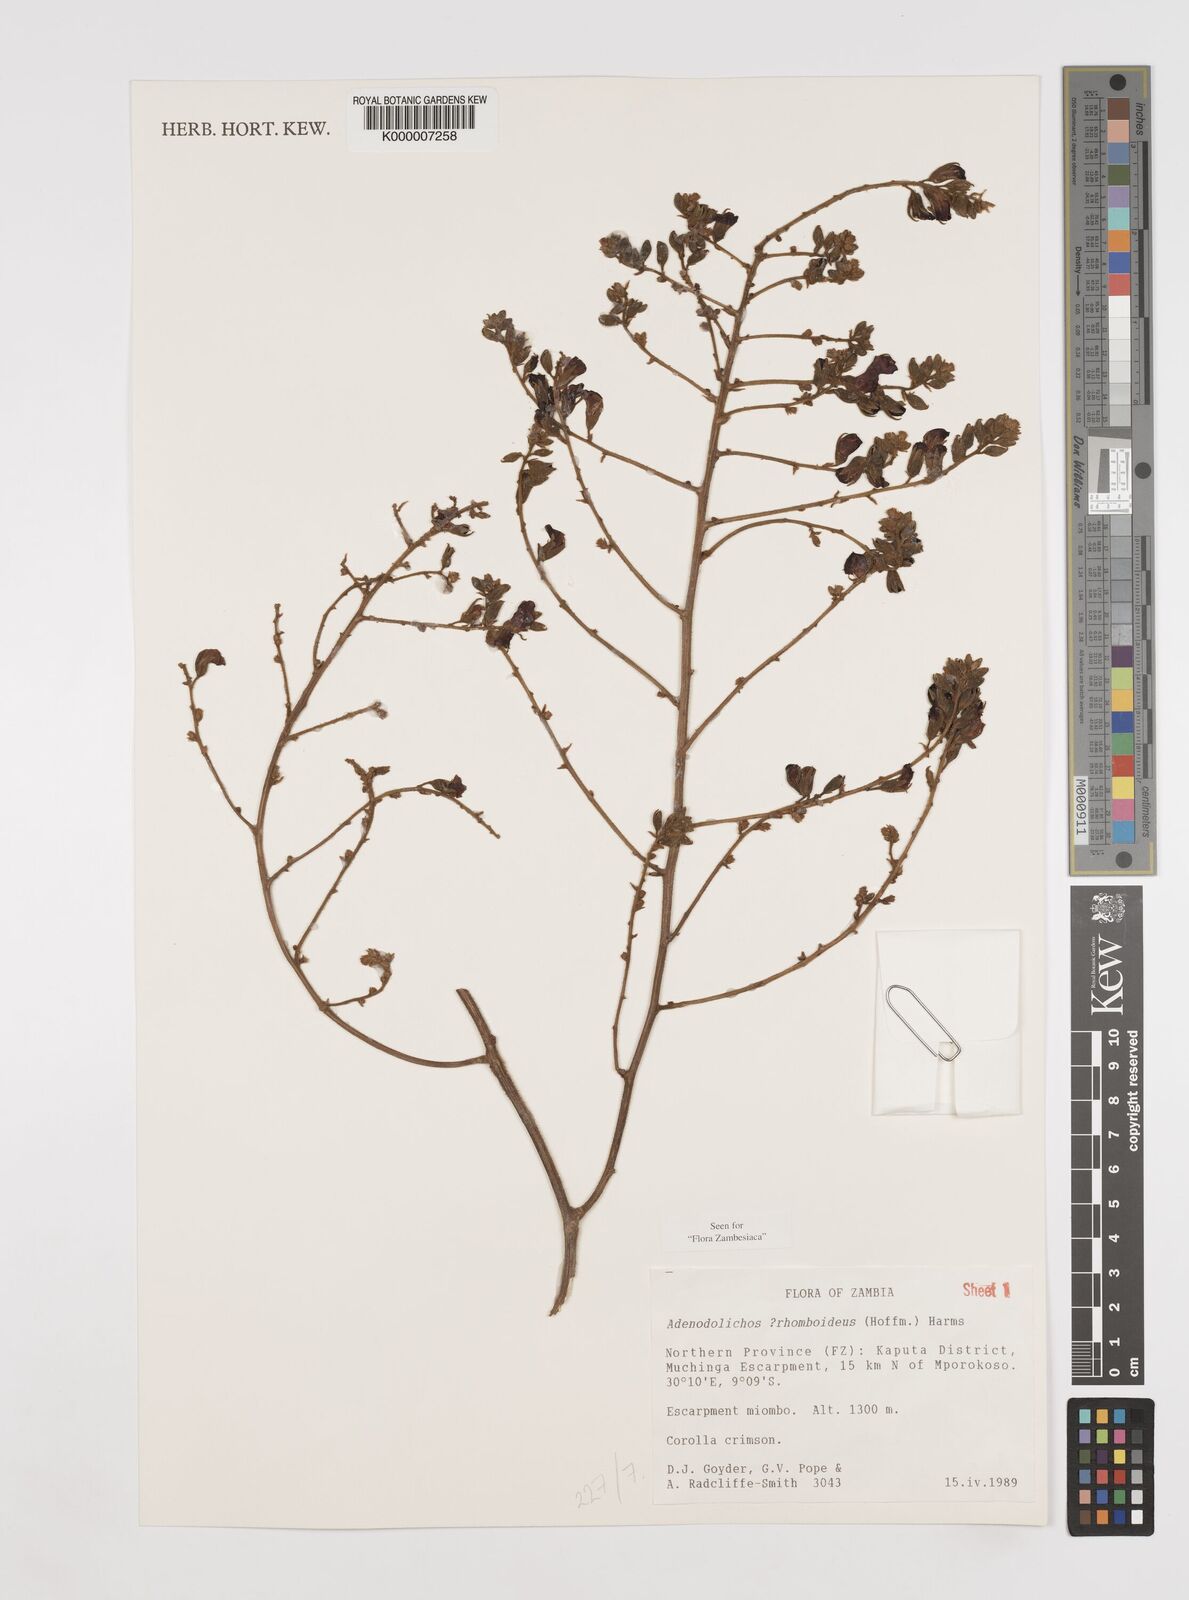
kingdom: Plantae
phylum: Tracheophyta
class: Magnoliopsida
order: Fabales
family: Fabaceae
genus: Adenodolichos
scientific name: Adenodolichos rhomboideus
